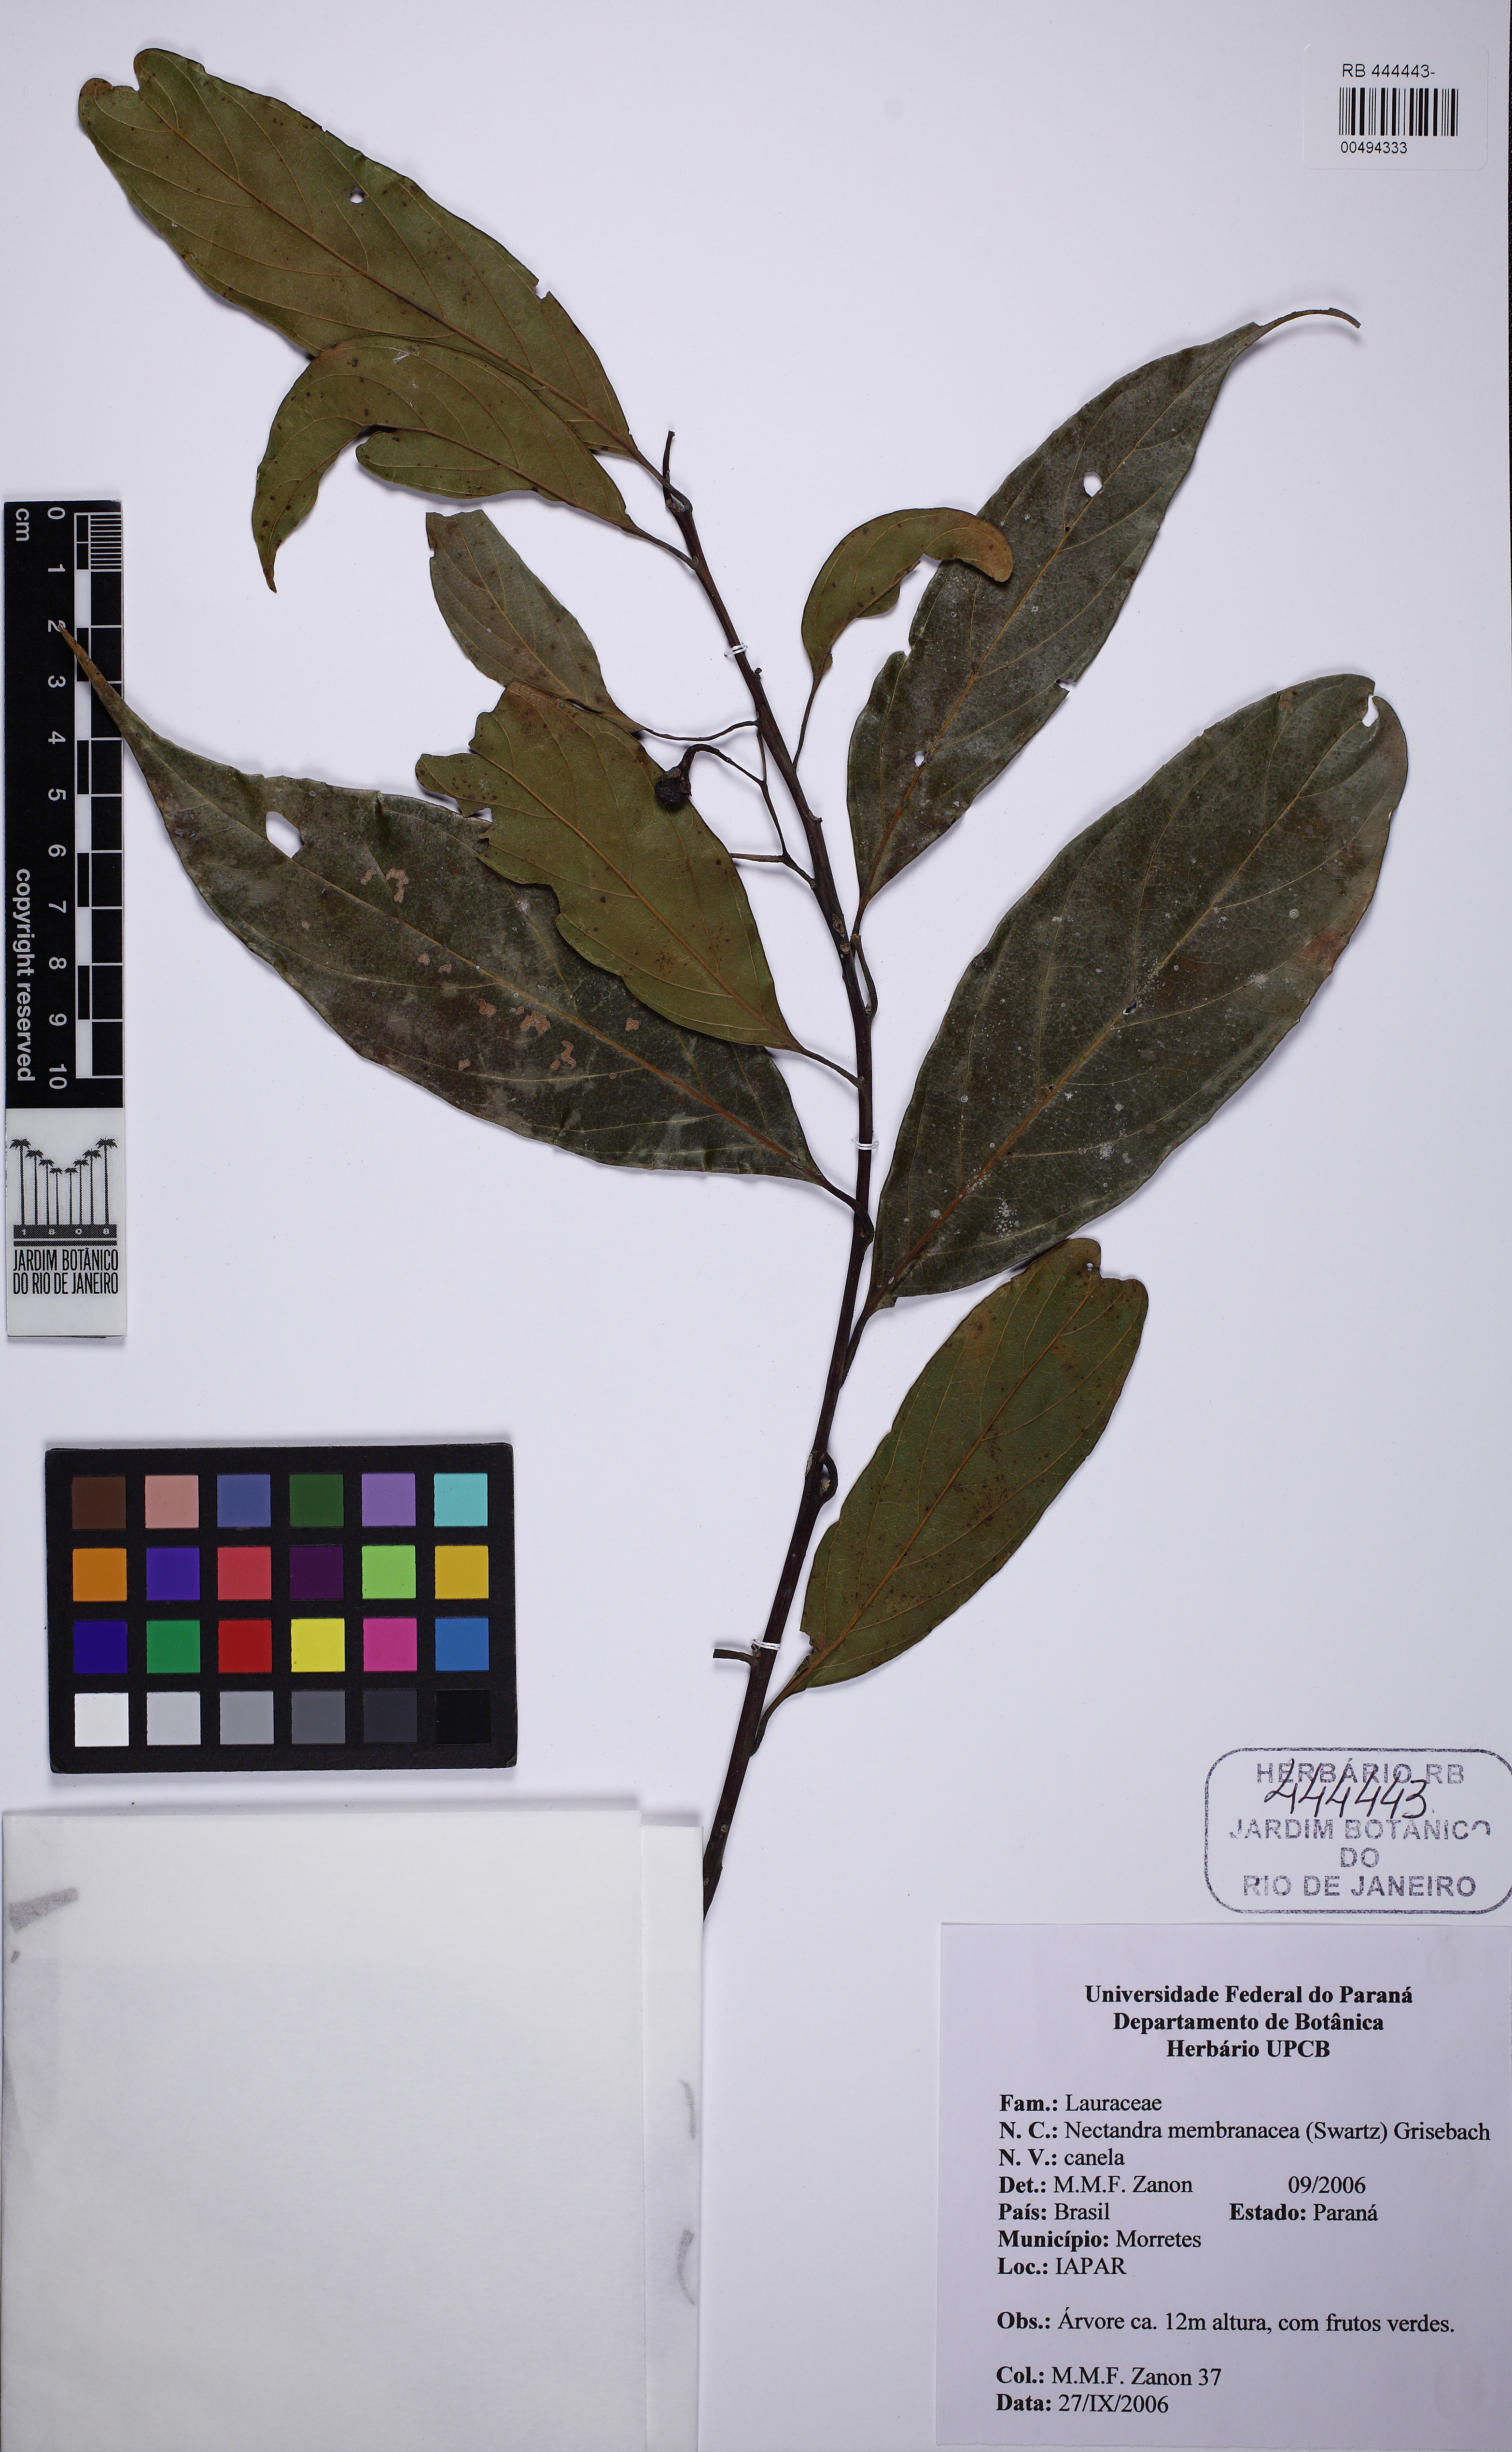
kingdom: Plantae
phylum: Tracheophyta
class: Magnoliopsida
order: Laurales
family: Lauraceae
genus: Nectandra
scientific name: Nectandra membranacea
